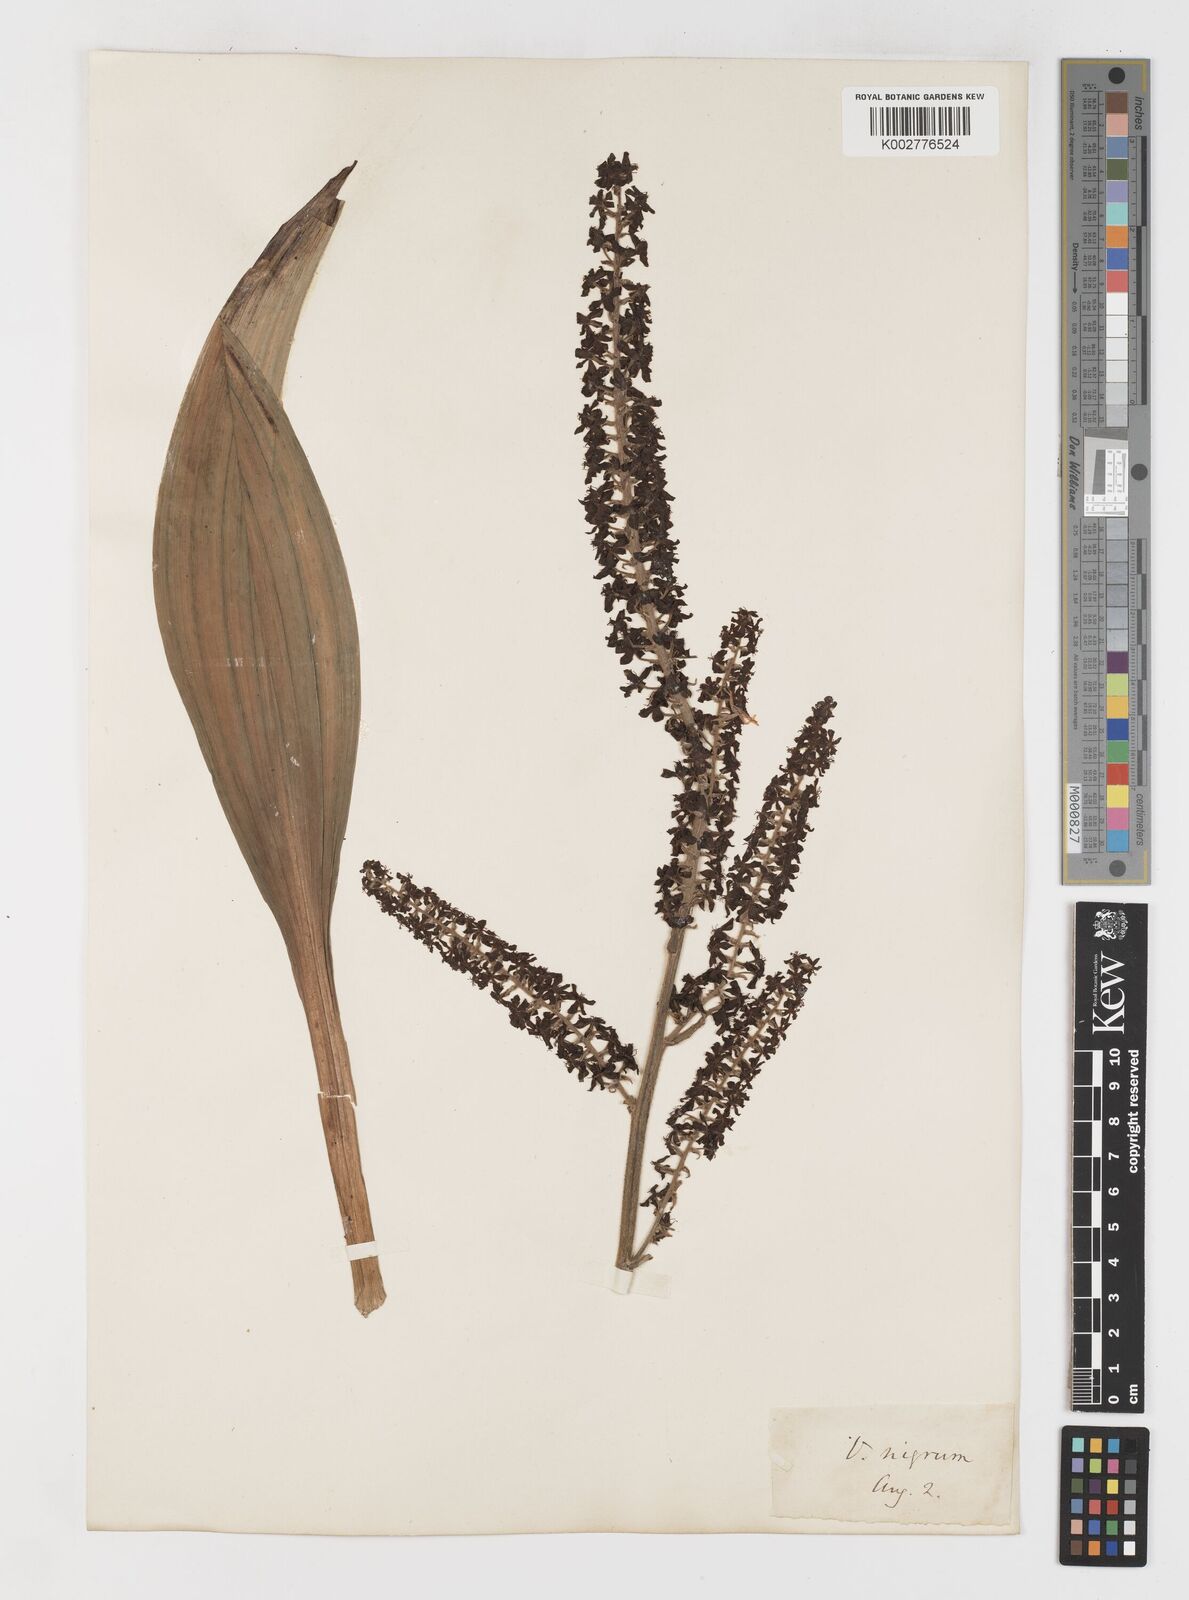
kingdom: Plantae
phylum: Tracheophyta
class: Liliopsida
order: Liliales
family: Melanthiaceae
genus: Veratrum
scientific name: Veratrum nigrum
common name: Black veratrum
